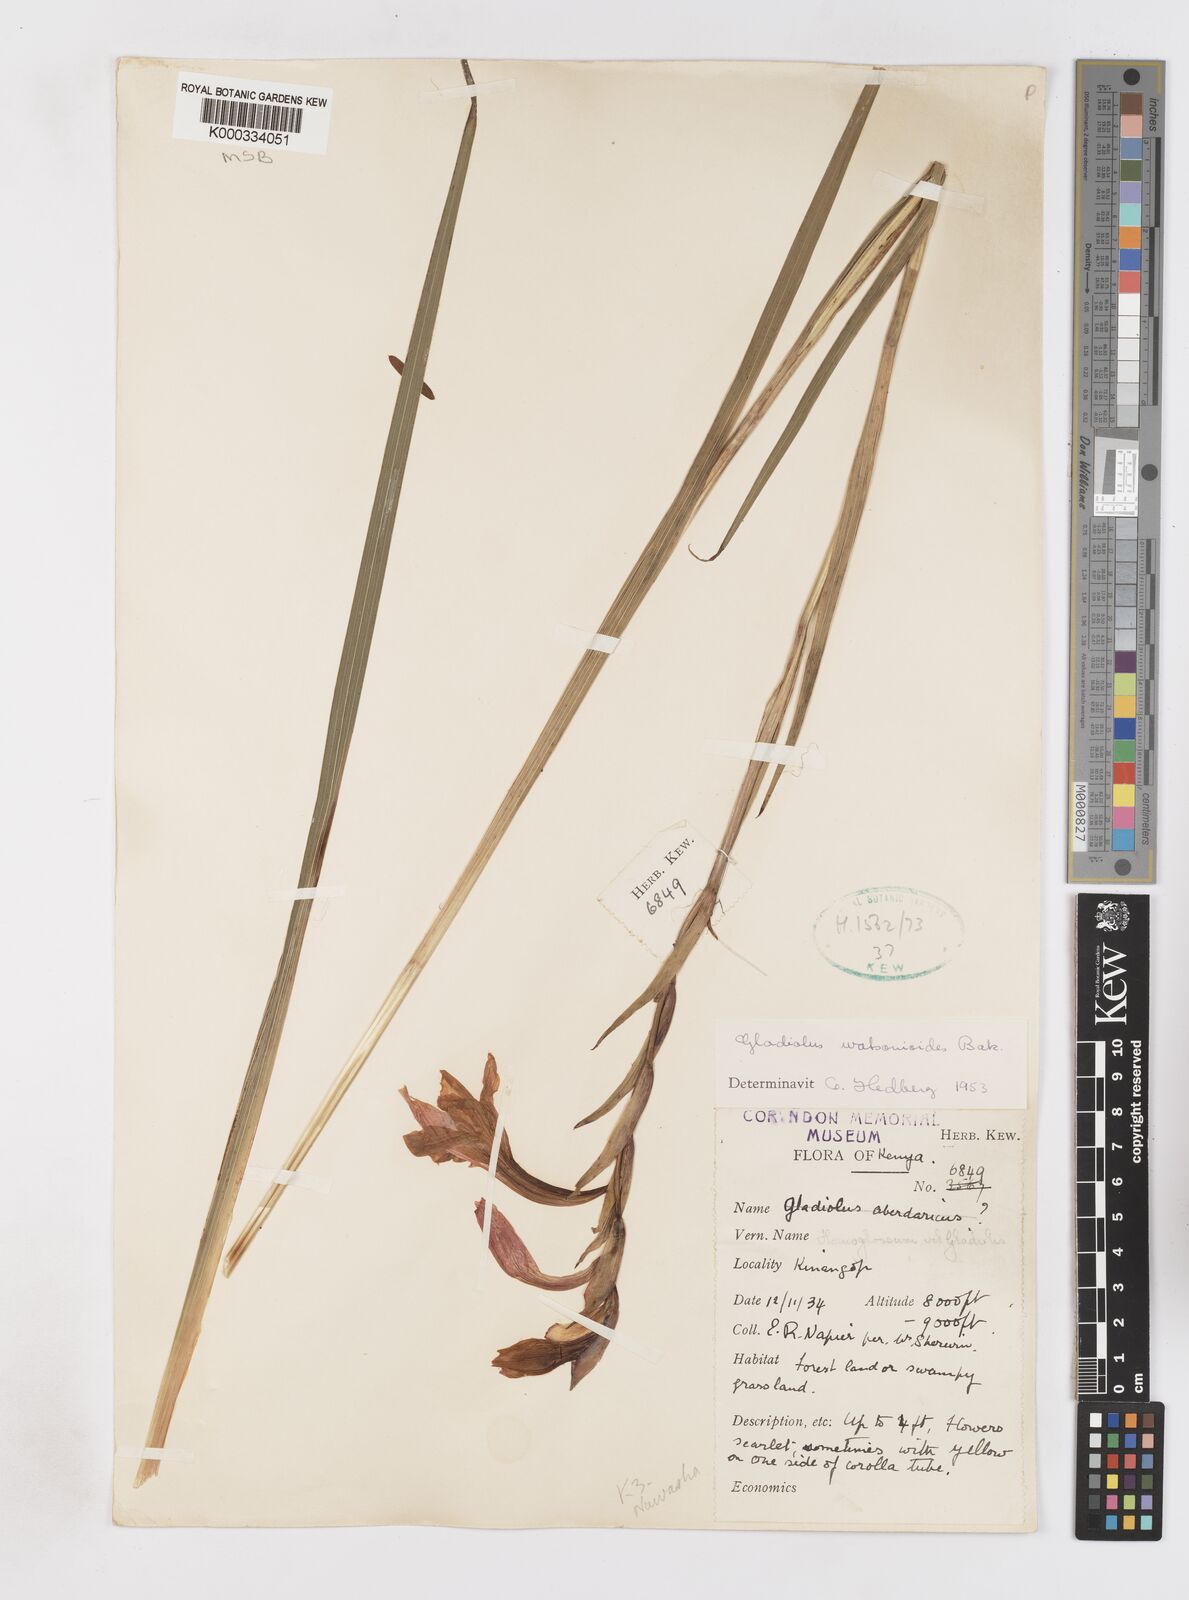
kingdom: Plantae
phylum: Tracheophyta
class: Liliopsida
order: Asparagales
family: Iridaceae
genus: Gladiolus
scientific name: Gladiolus watsonioides
